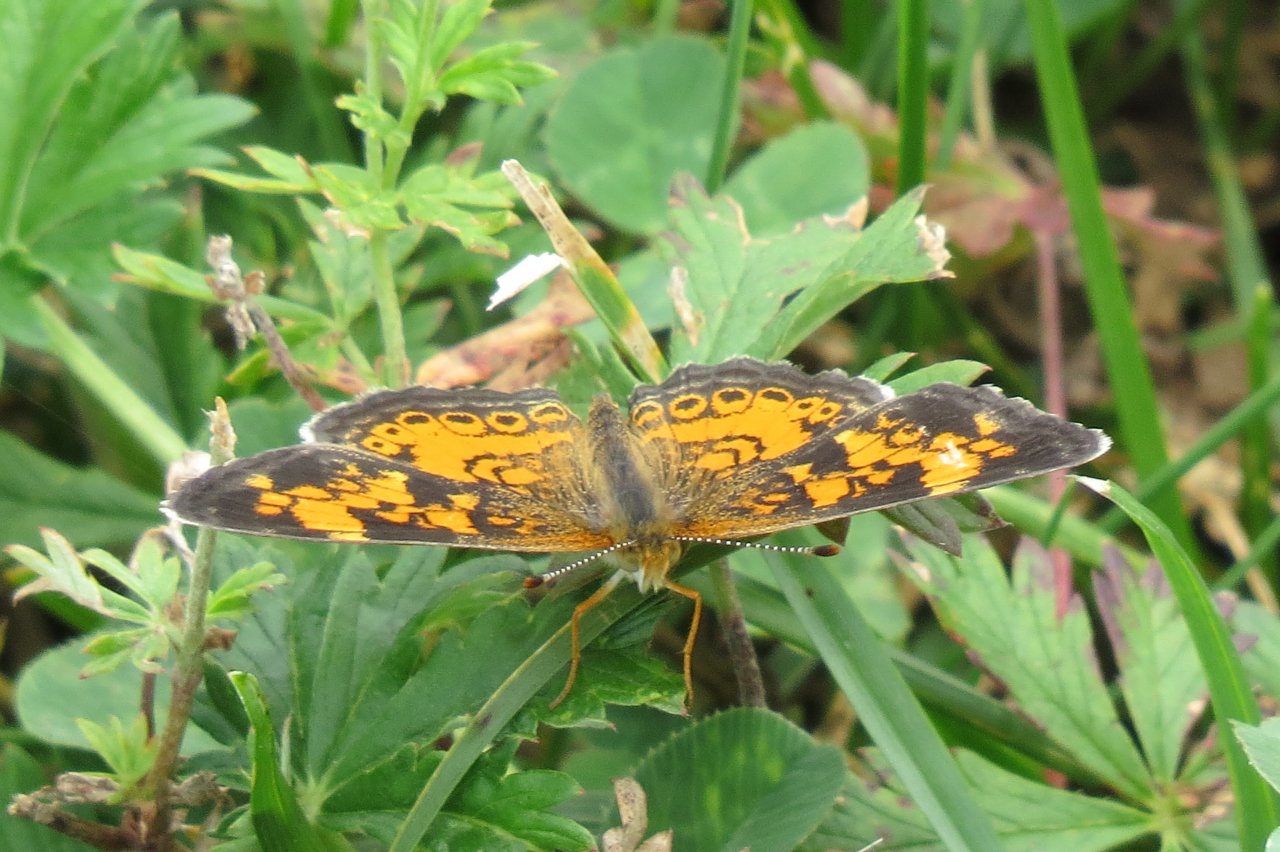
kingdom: Animalia
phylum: Arthropoda
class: Insecta
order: Lepidoptera
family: Nymphalidae
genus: Phyciodes
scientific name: Phyciodes tharos
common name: Northern Crescent
